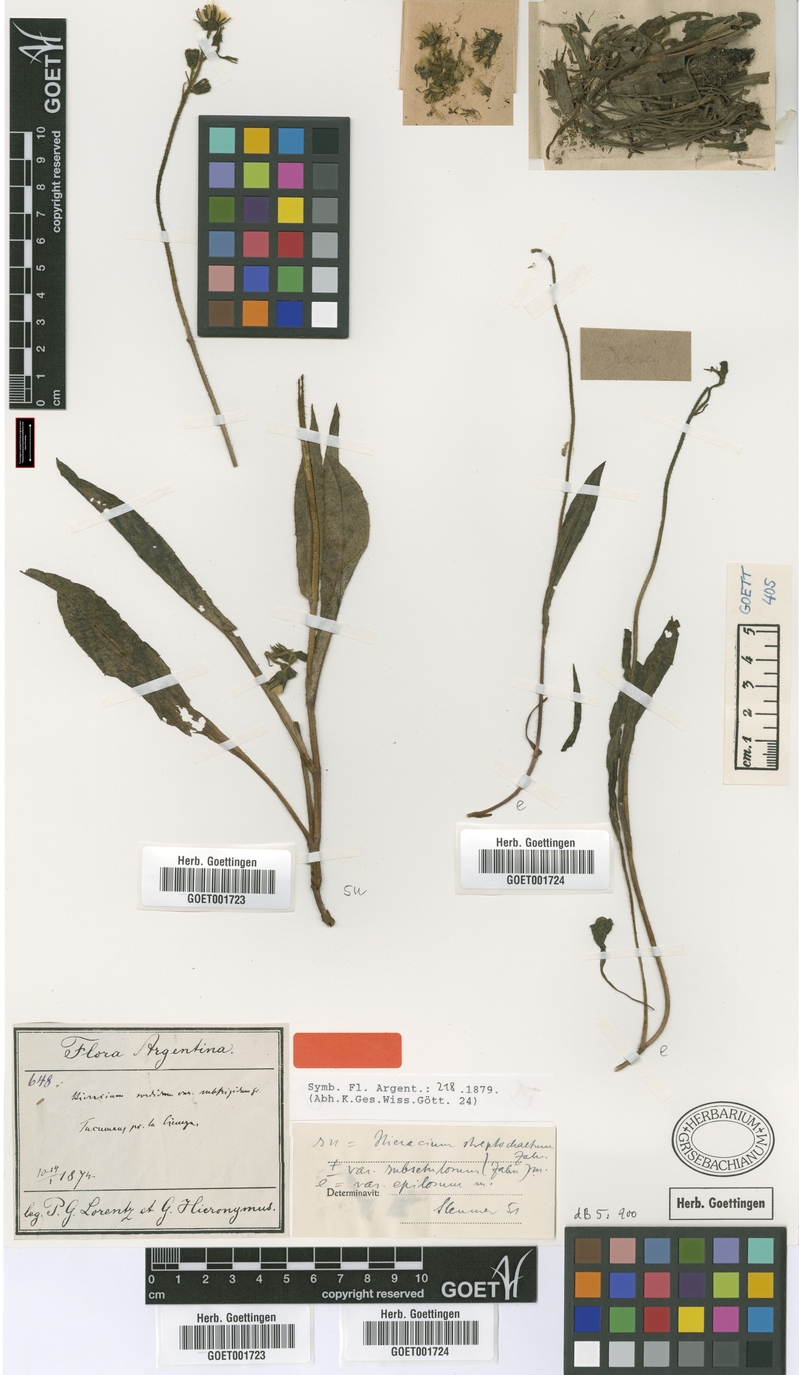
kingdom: Plantae
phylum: Tracheophyta
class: Magnoliopsida
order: Asterales
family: Asteraceae
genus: Hieracium
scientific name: Hieracium streptochaetum
